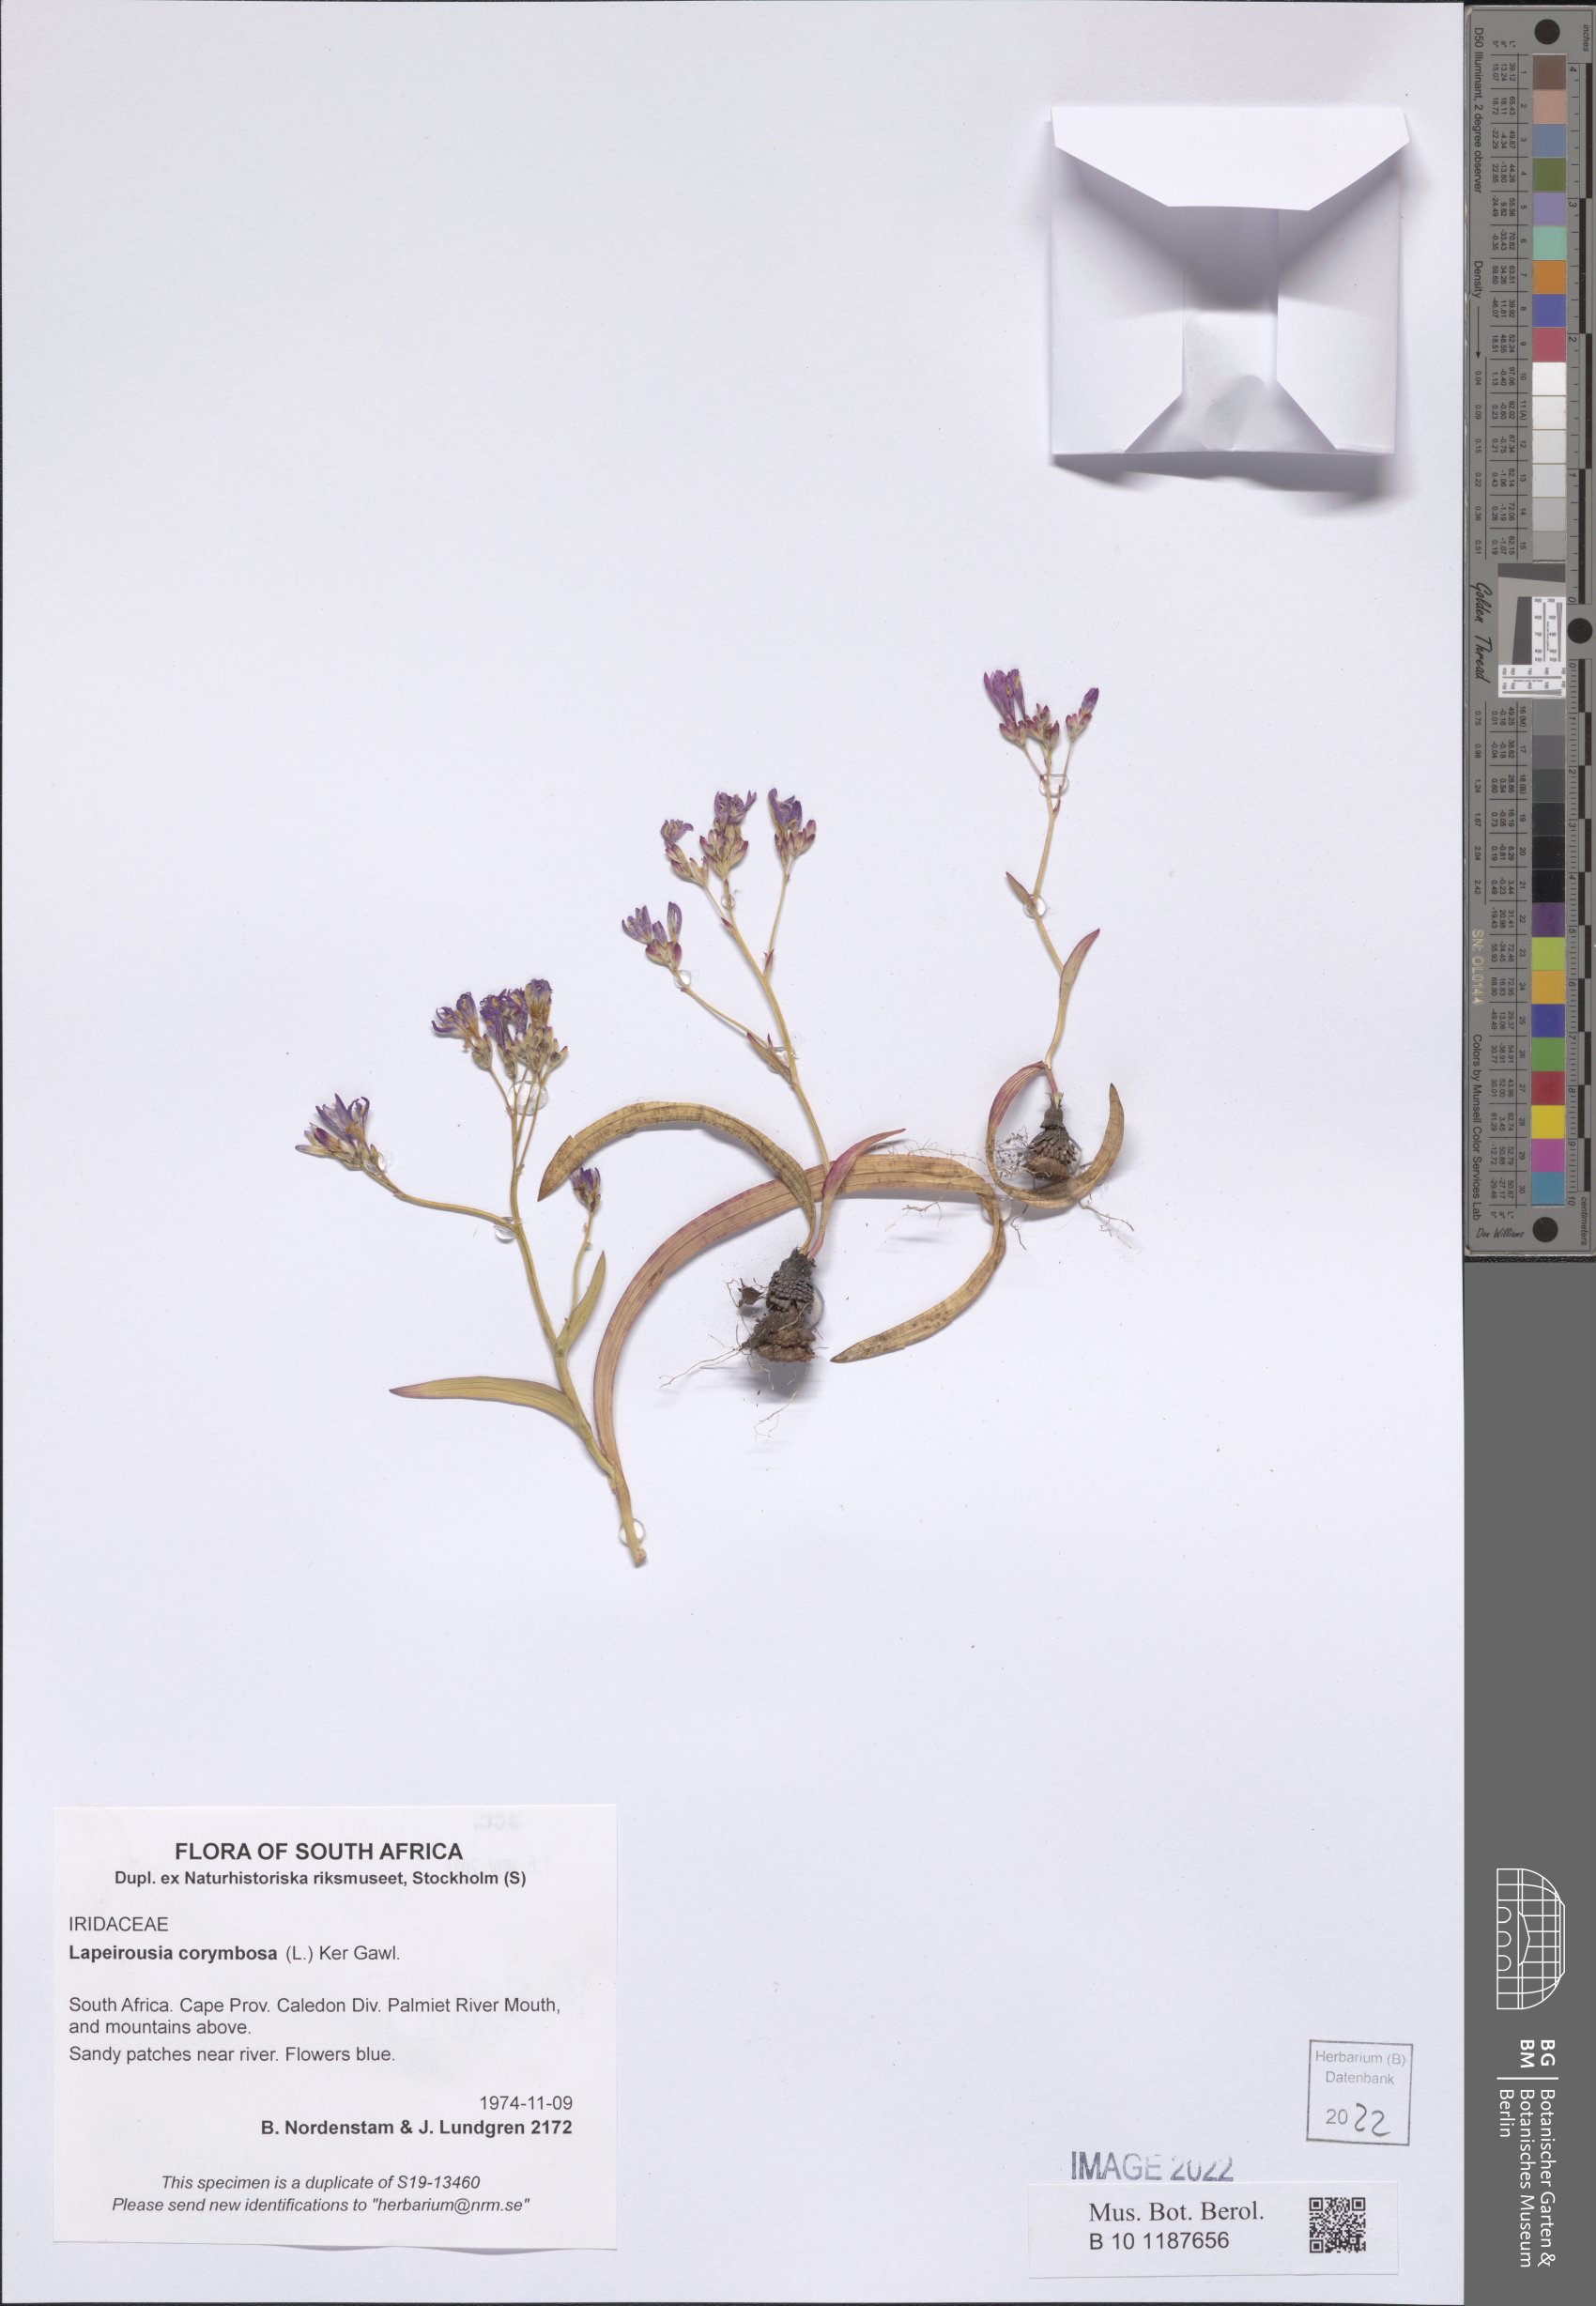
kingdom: Plantae
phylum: Tracheophyta
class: Liliopsida
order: Asparagales
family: Iridaceae
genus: Codonorhiza
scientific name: Codonorhiza corymbosa
